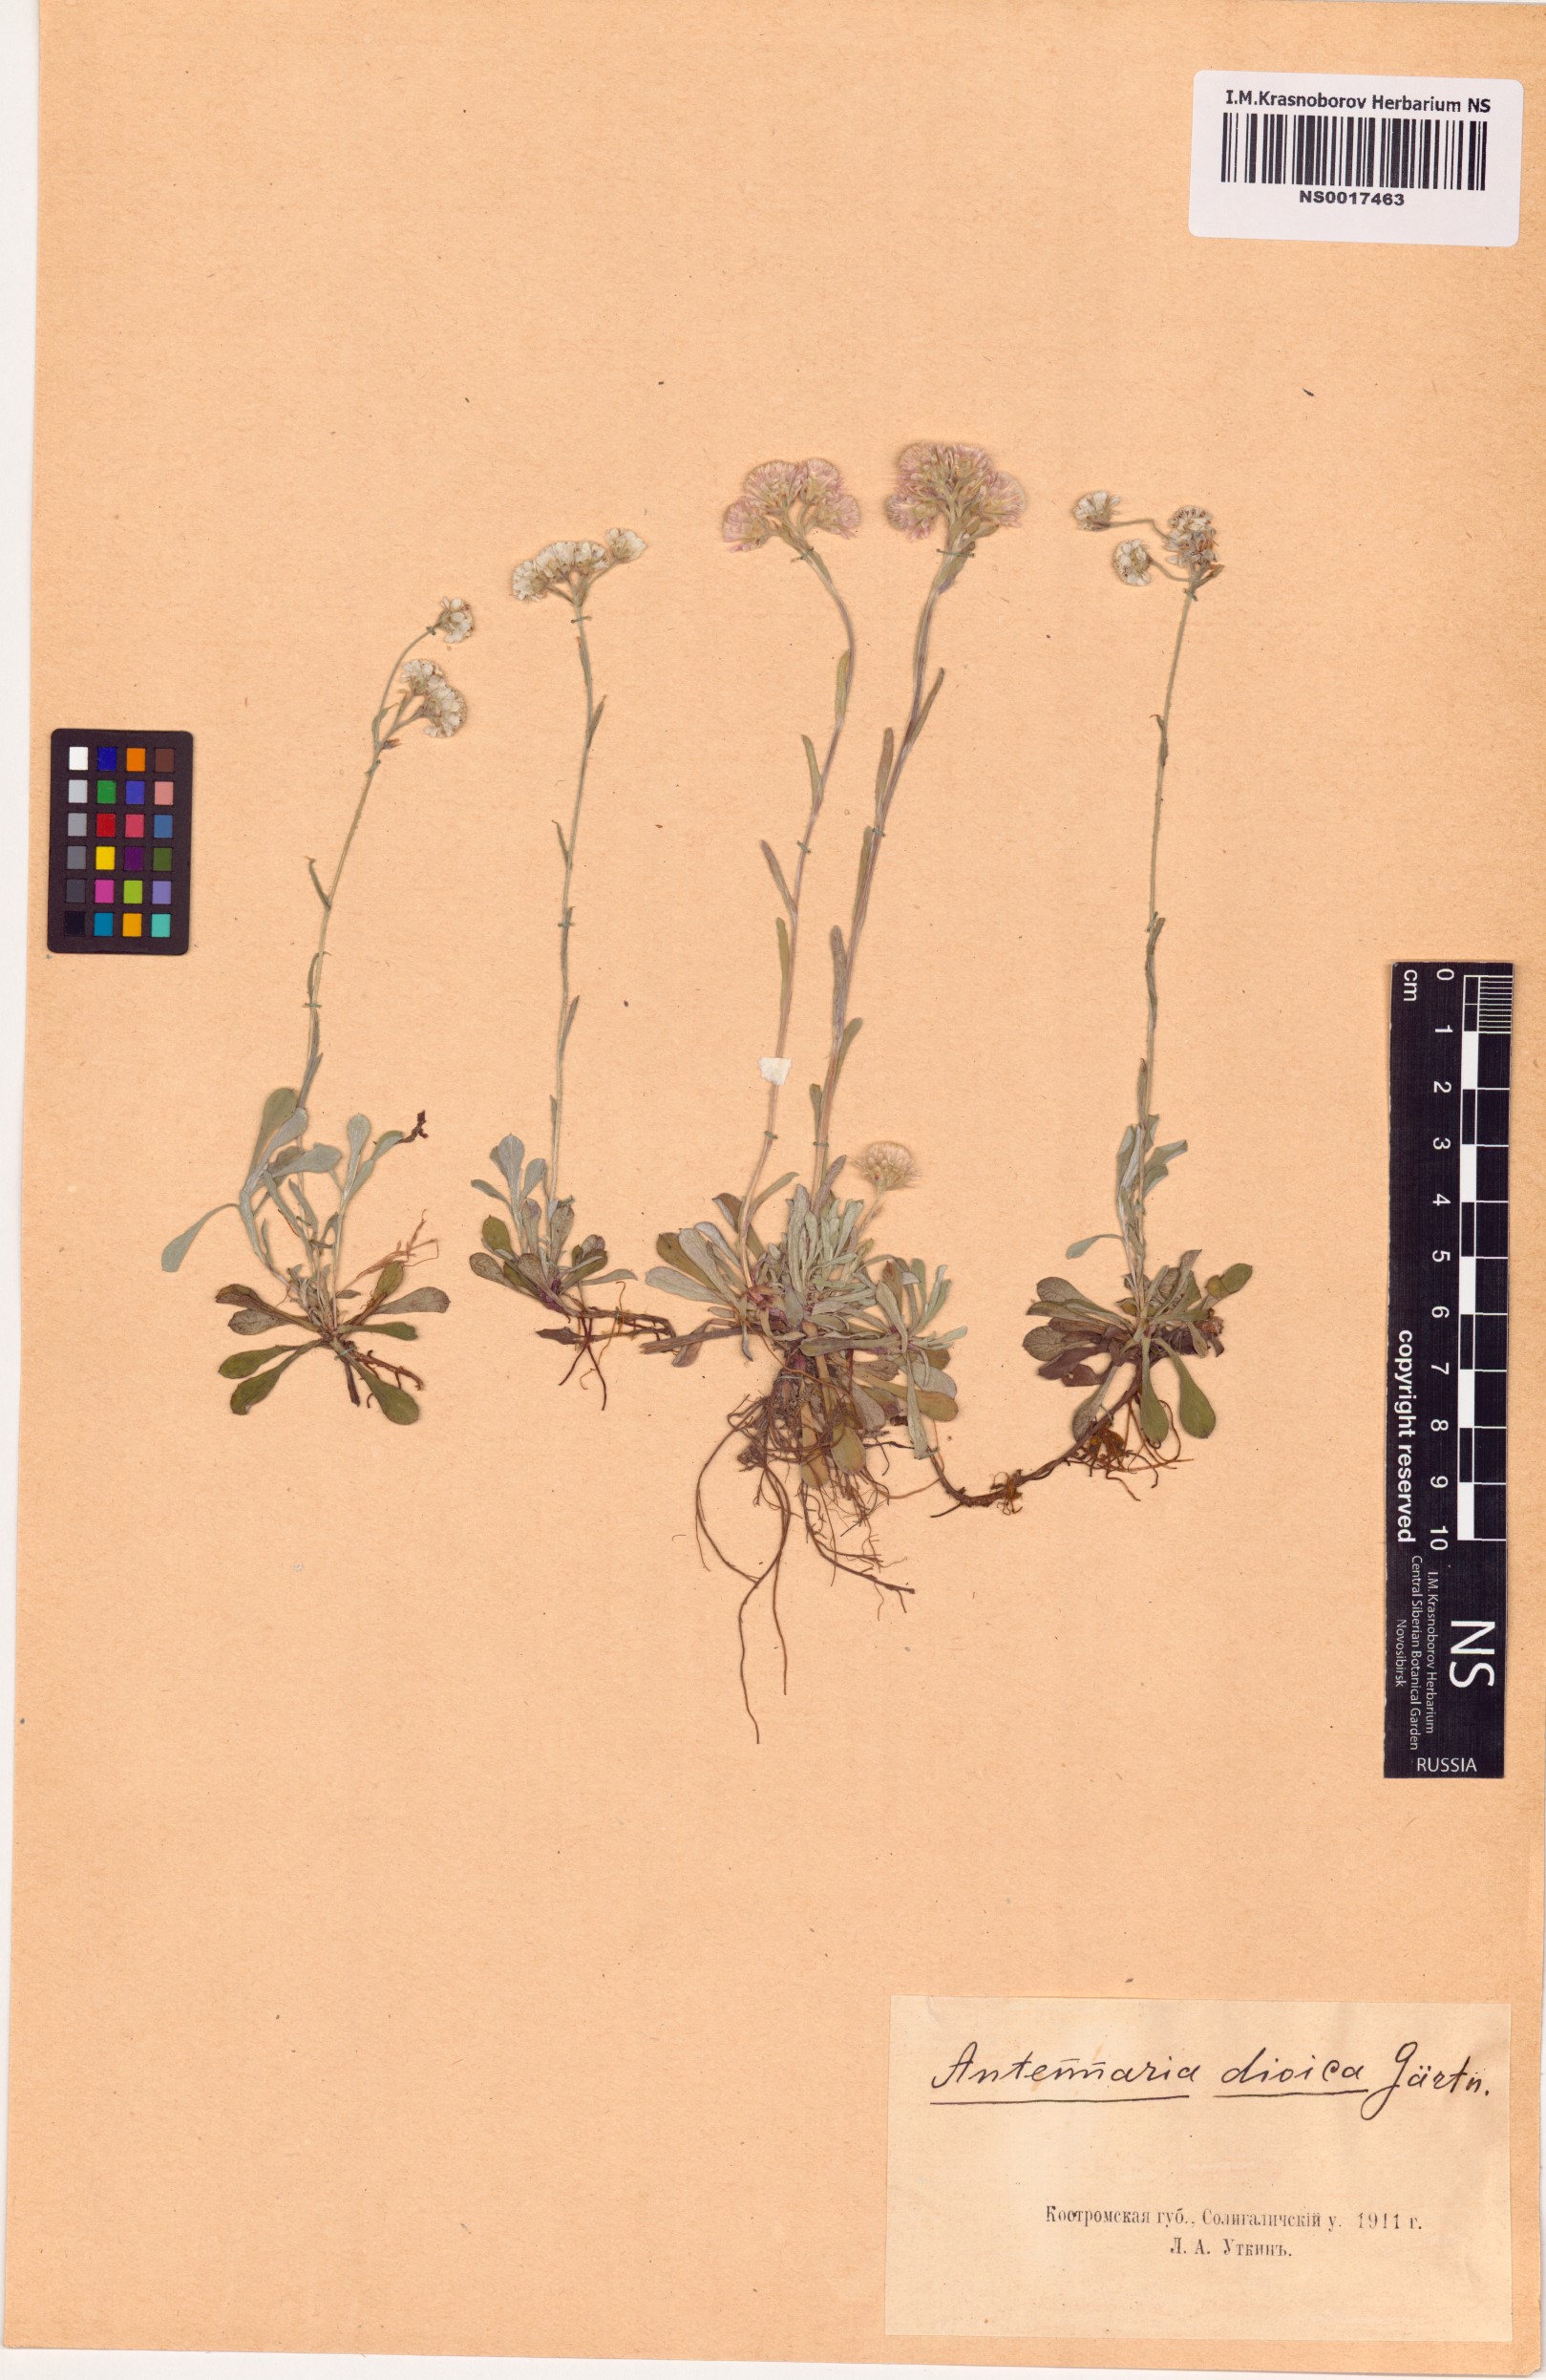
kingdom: Plantae
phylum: Tracheophyta
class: Magnoliopsida
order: Asterales
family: Asteraceae
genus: Antennaria
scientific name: Antennaria dioica
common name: Mountain everlasting
